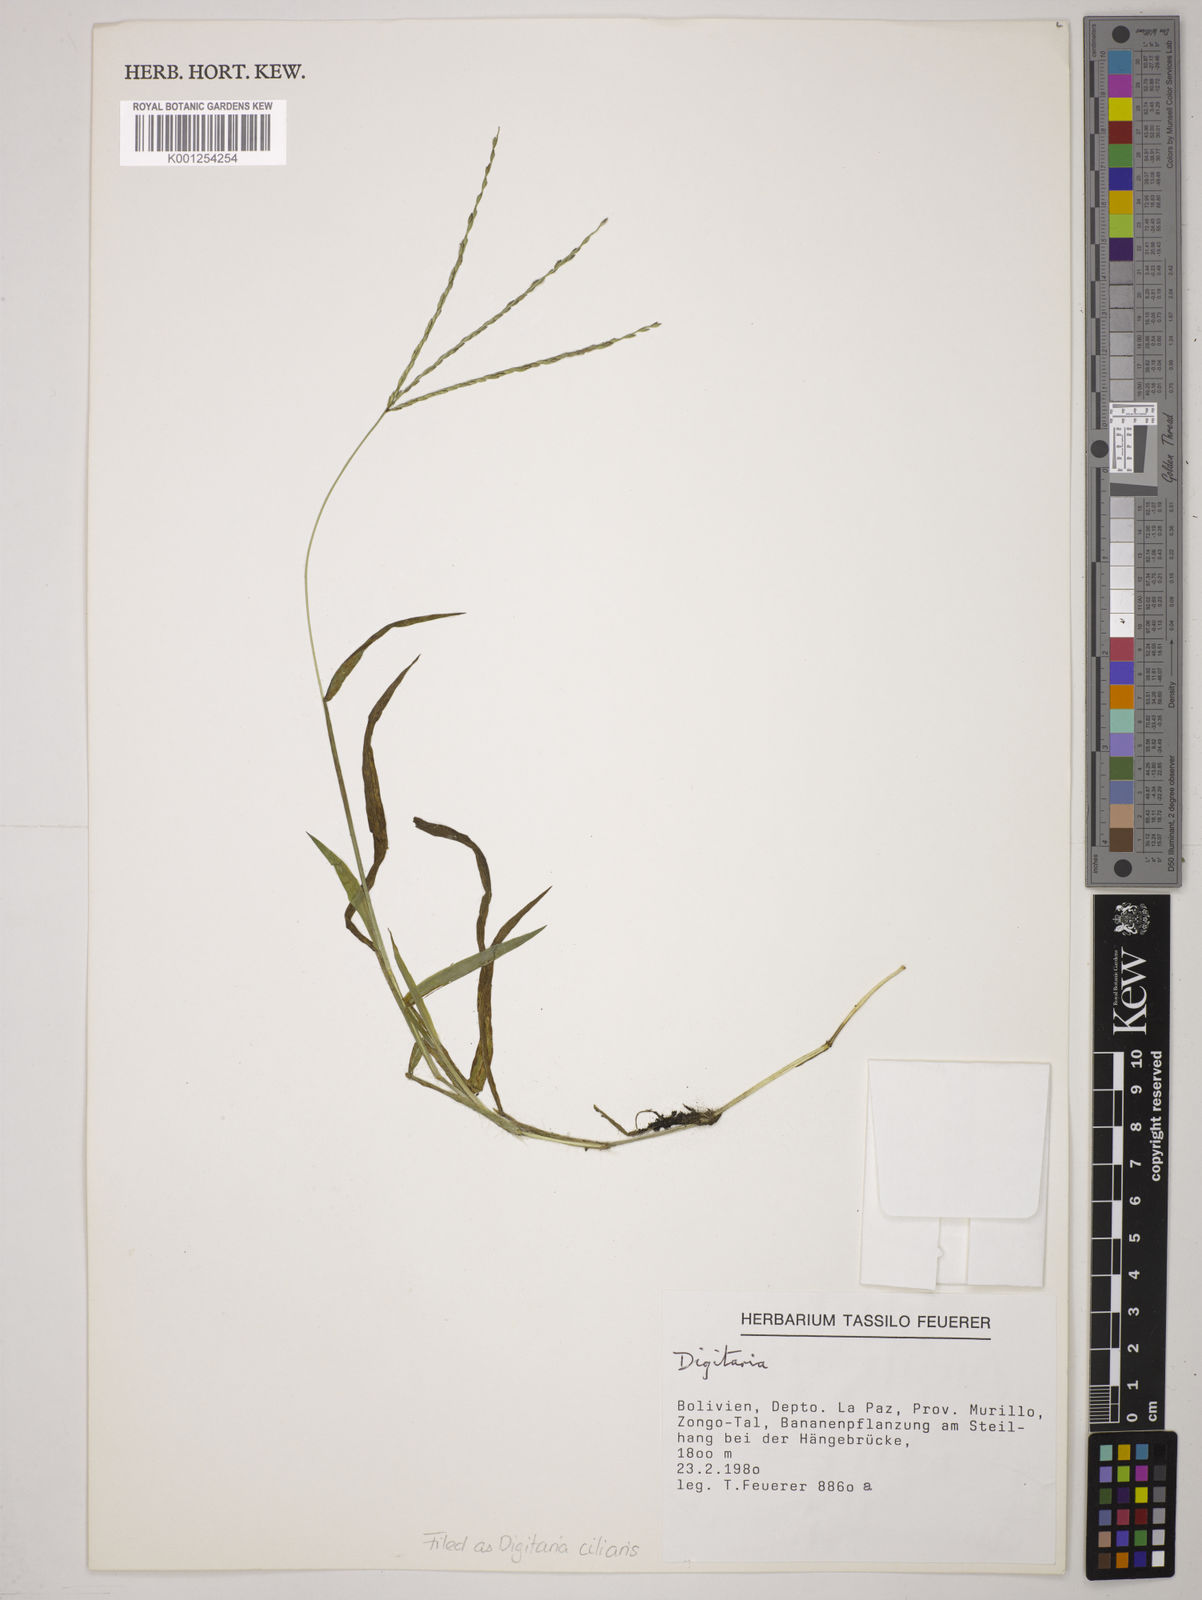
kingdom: Plantae
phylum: Tracheophyta
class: Liliopsida
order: Poales
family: Poaceae
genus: Digitaria
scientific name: Digitaria
